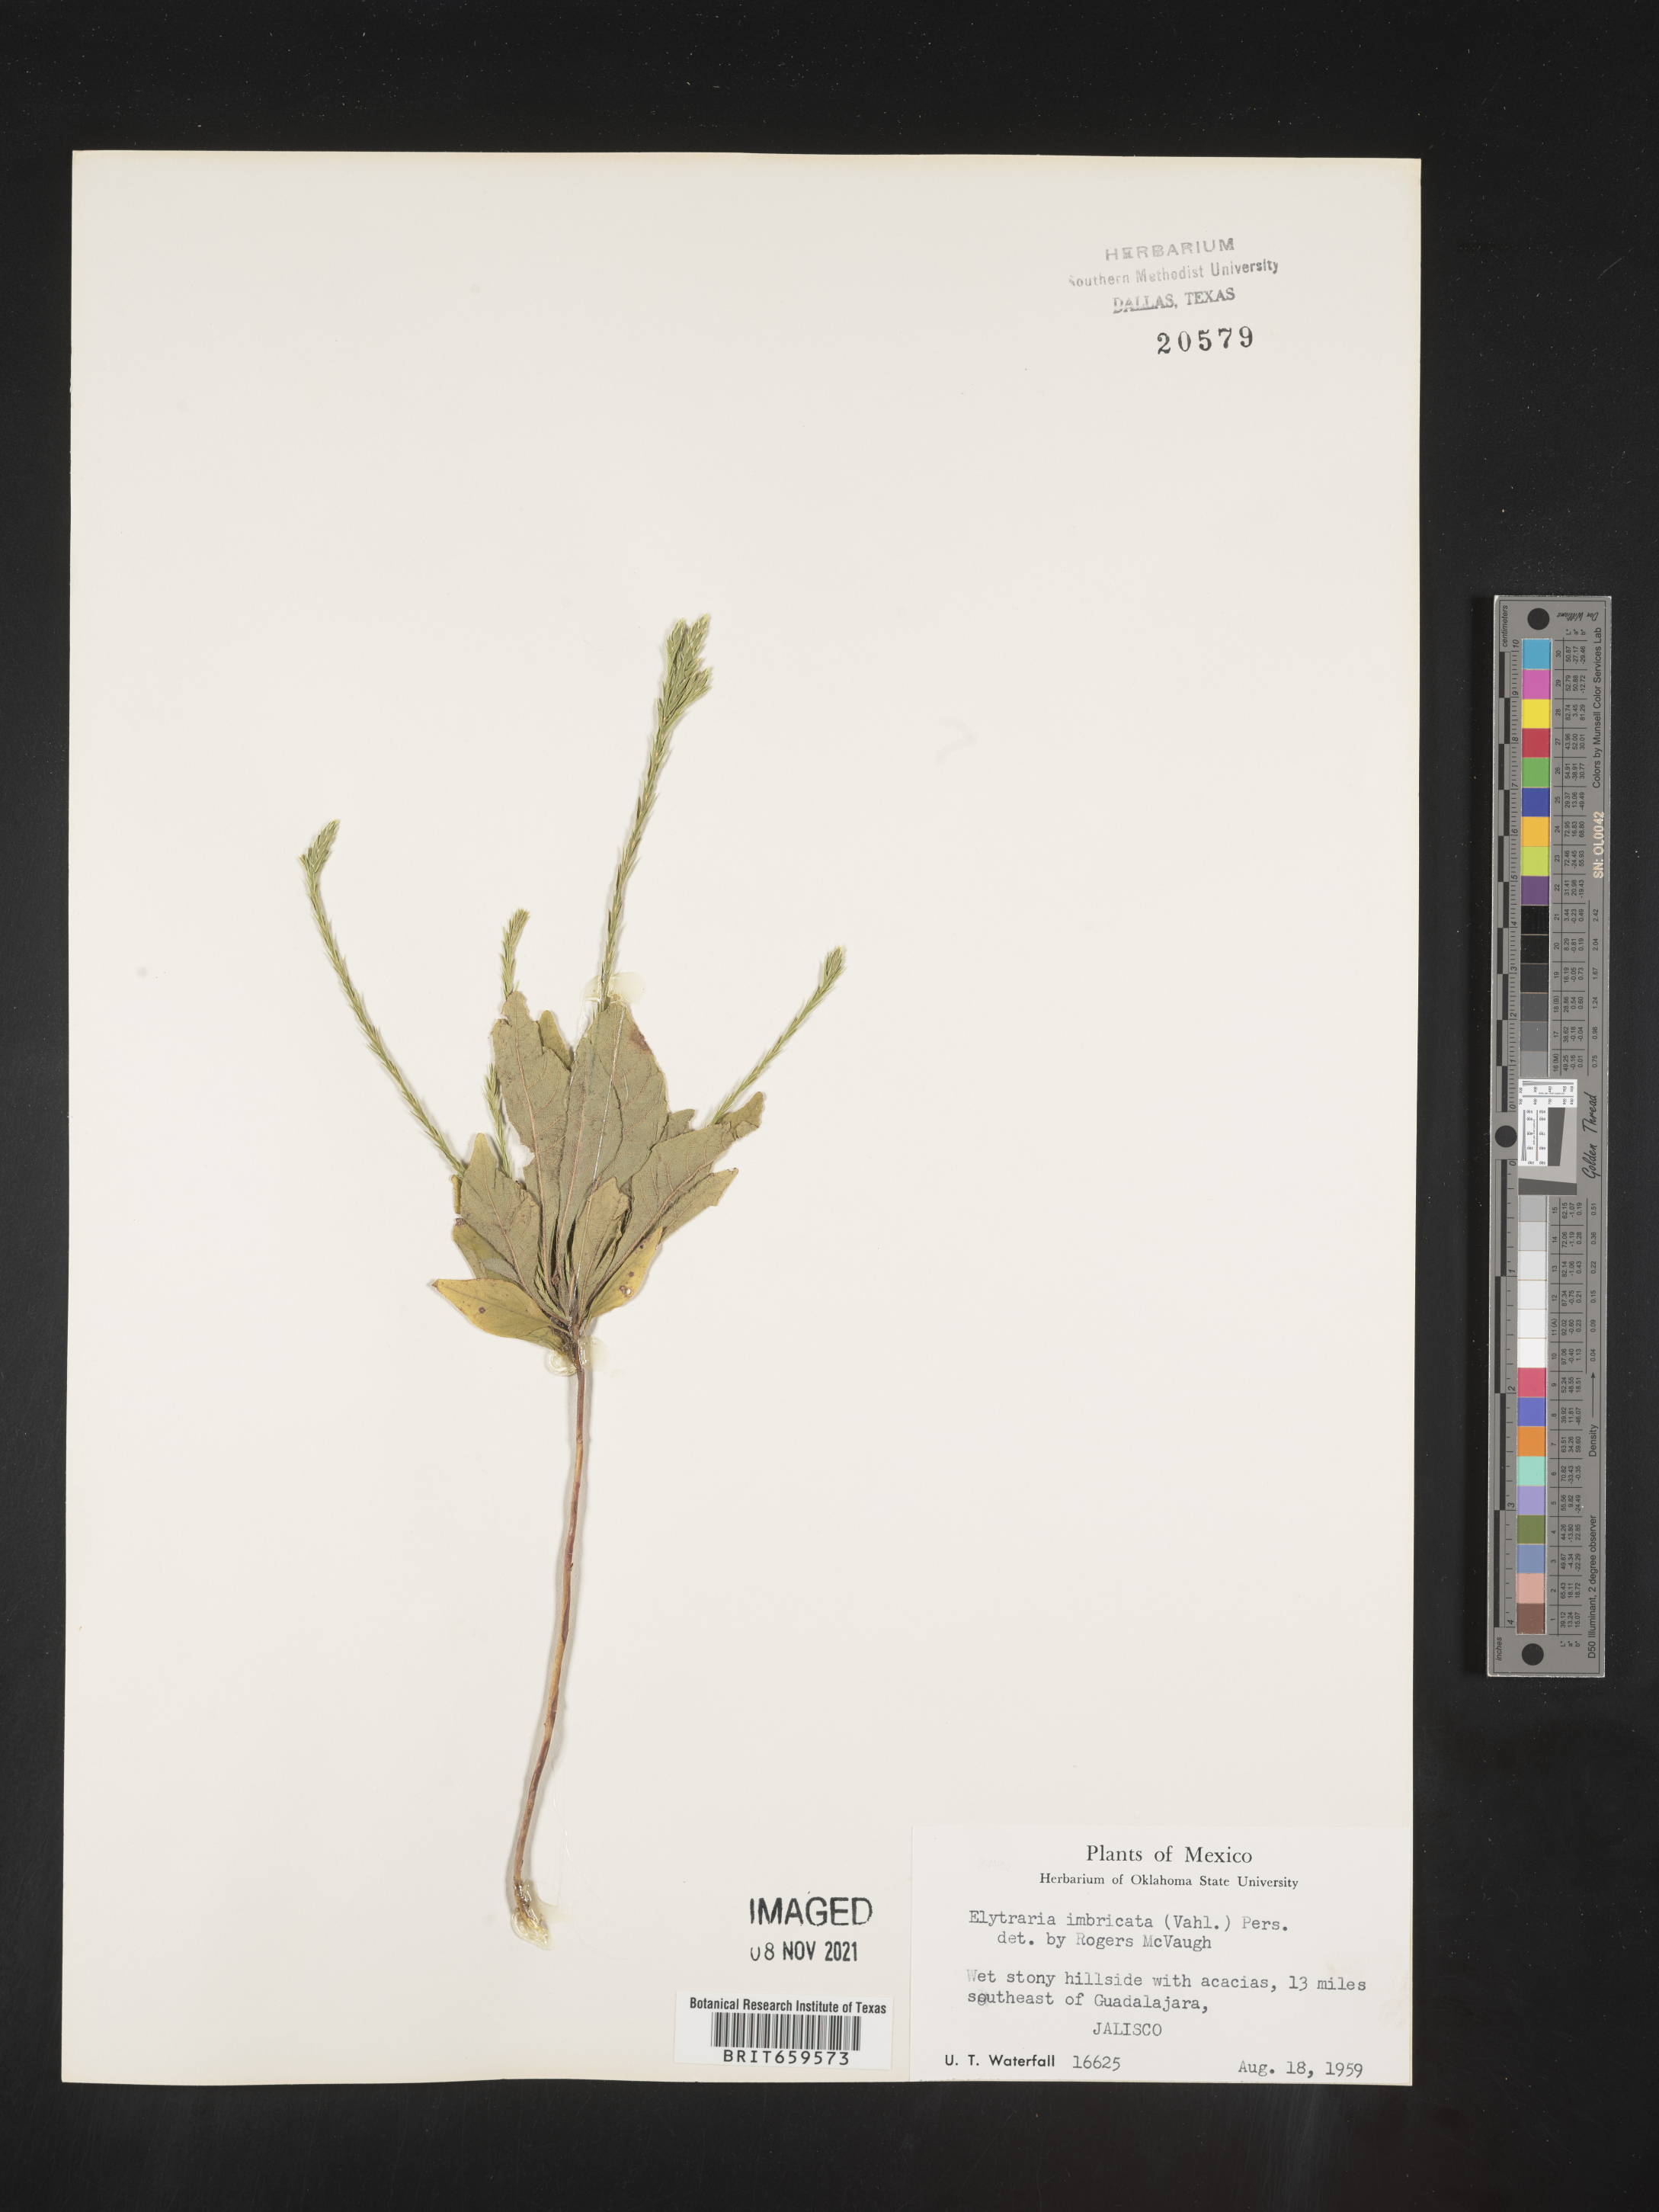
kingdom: Plantae
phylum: Tracheophyta
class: Magnoliopsida
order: Lamiales
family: Acanthaceae
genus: Elytraria
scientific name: Elytraria imbricata
